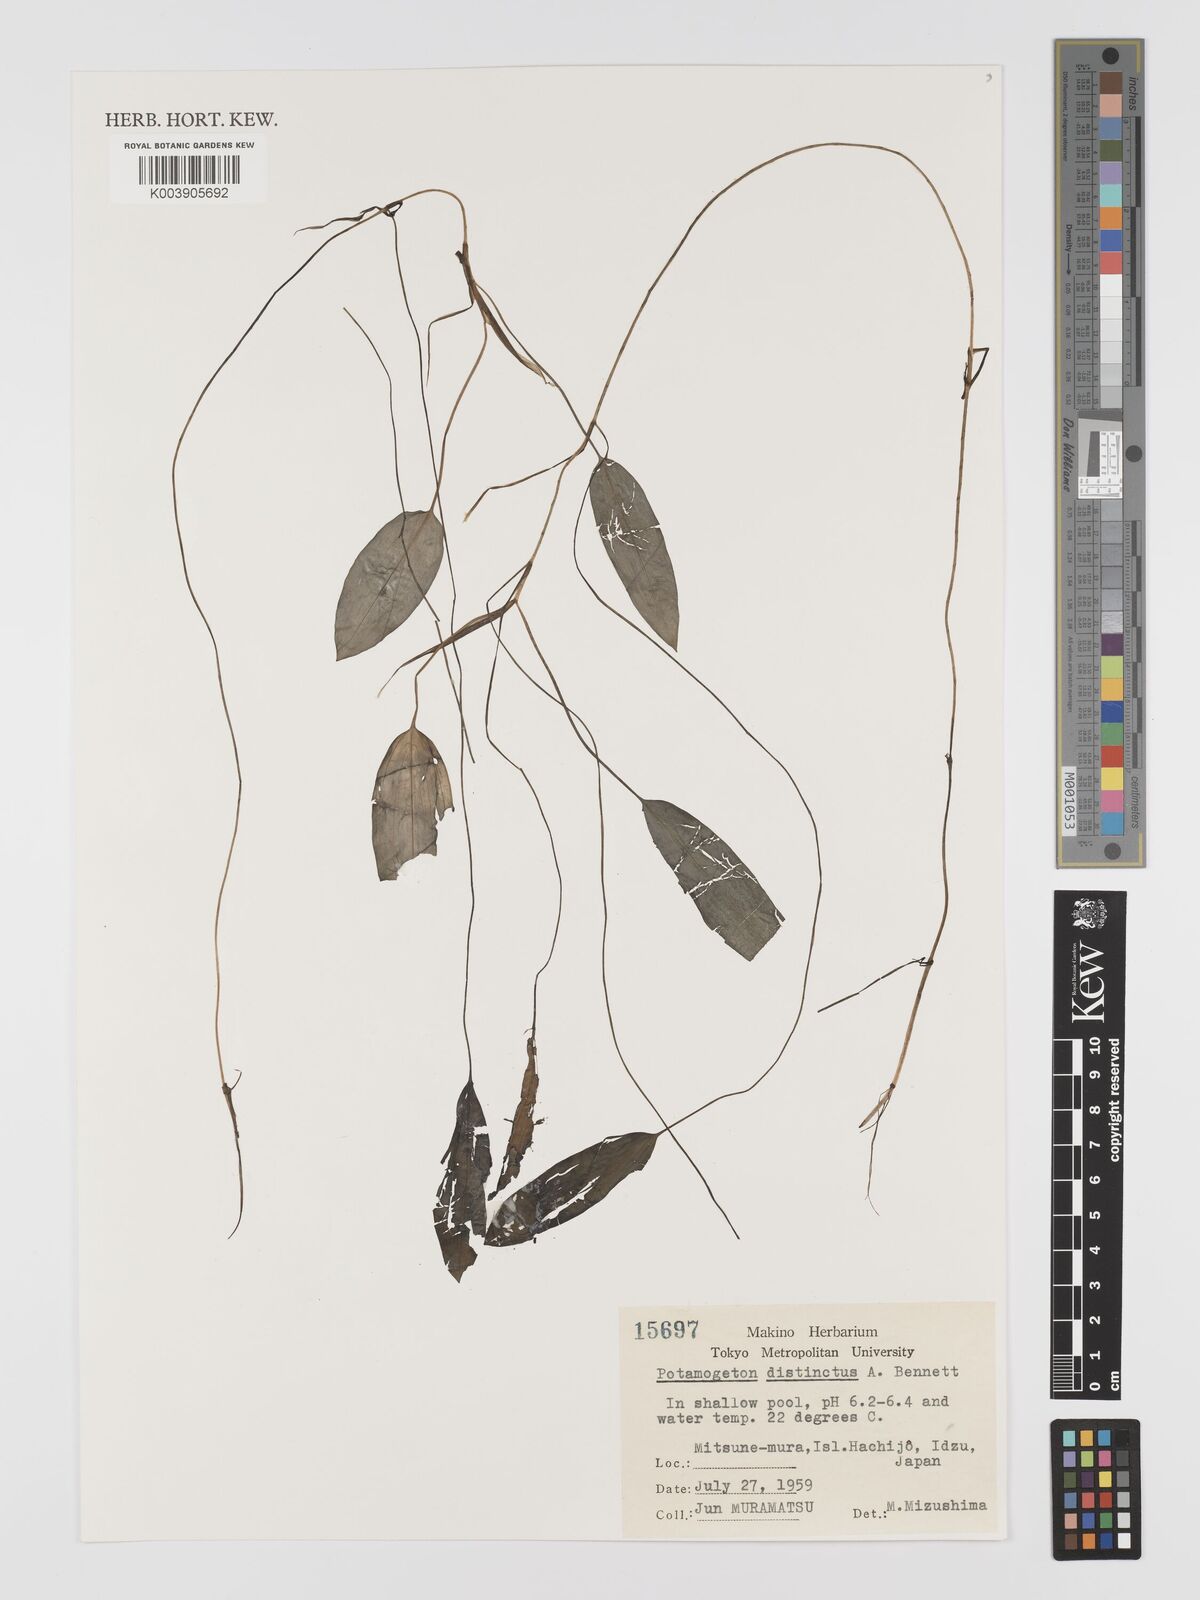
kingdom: Plantae
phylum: Tracheophyta
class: Liliopsida
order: Alismatales
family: Potamogetonaceae
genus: Potamogeton
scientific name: Potamogeton distinctus
